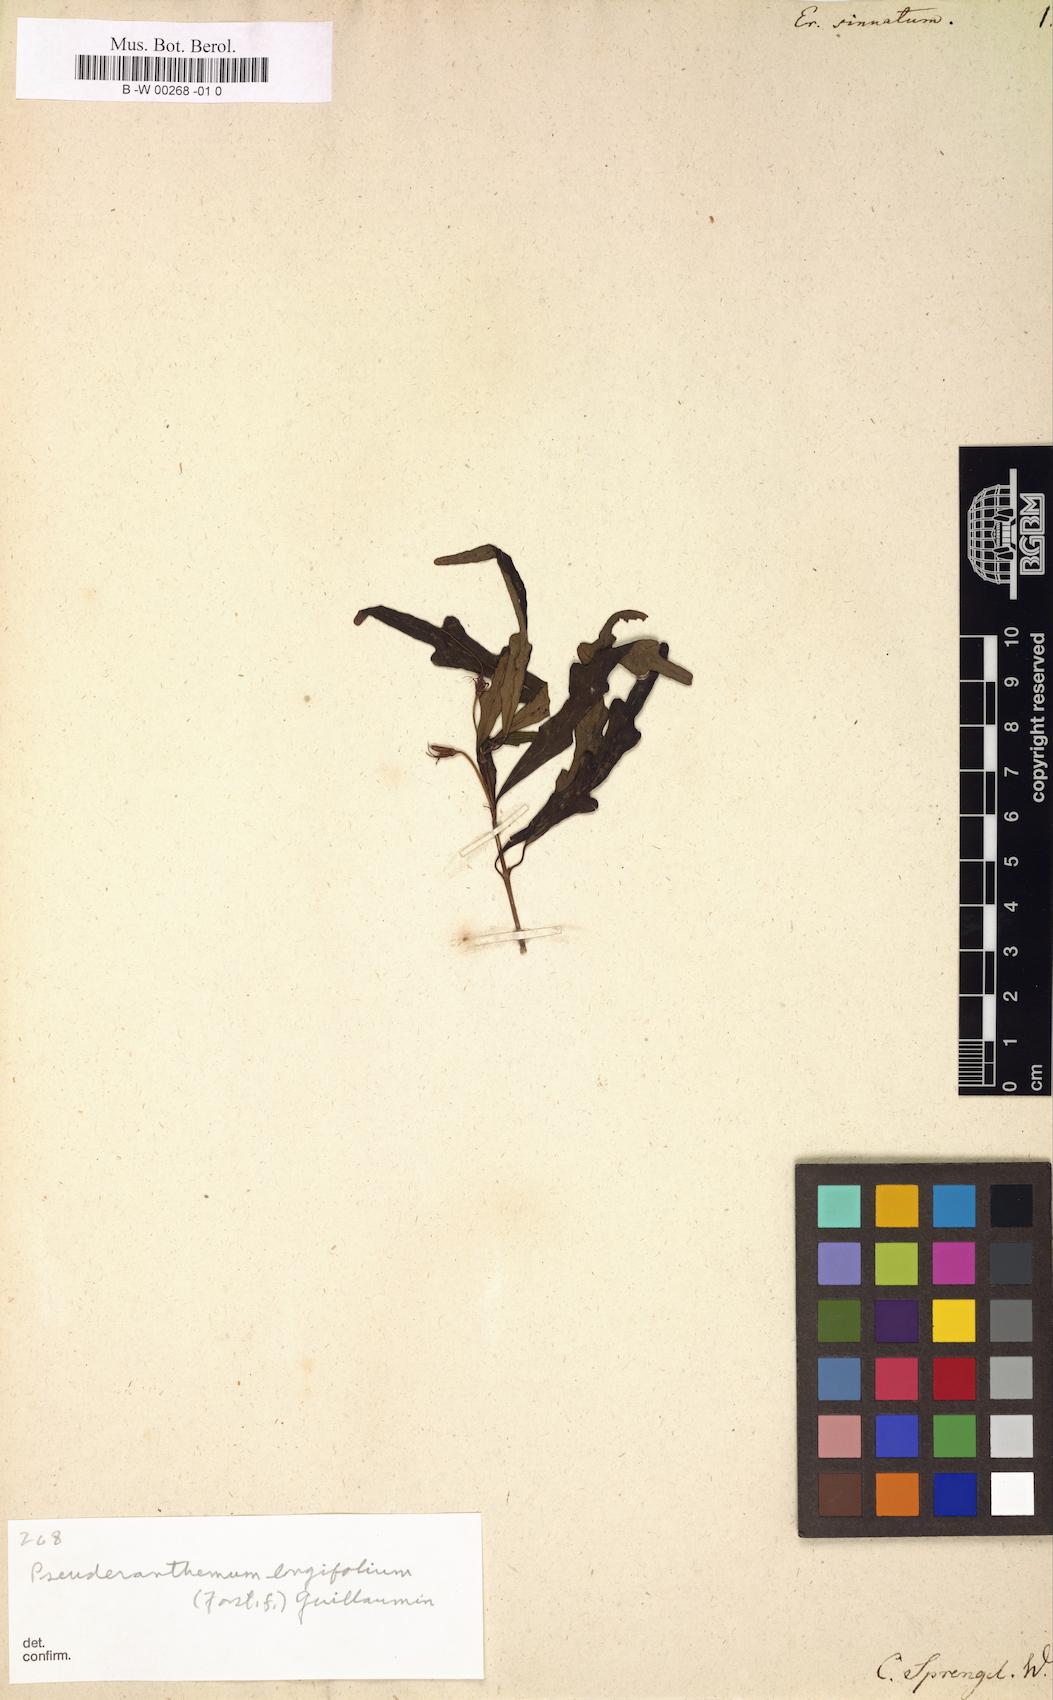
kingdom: Plantae
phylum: Tracheophyta
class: Magnoliopsida
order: Lamiales
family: Acanthaceae
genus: Pseuderanthemum
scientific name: Pseuderanthemum longifolium
